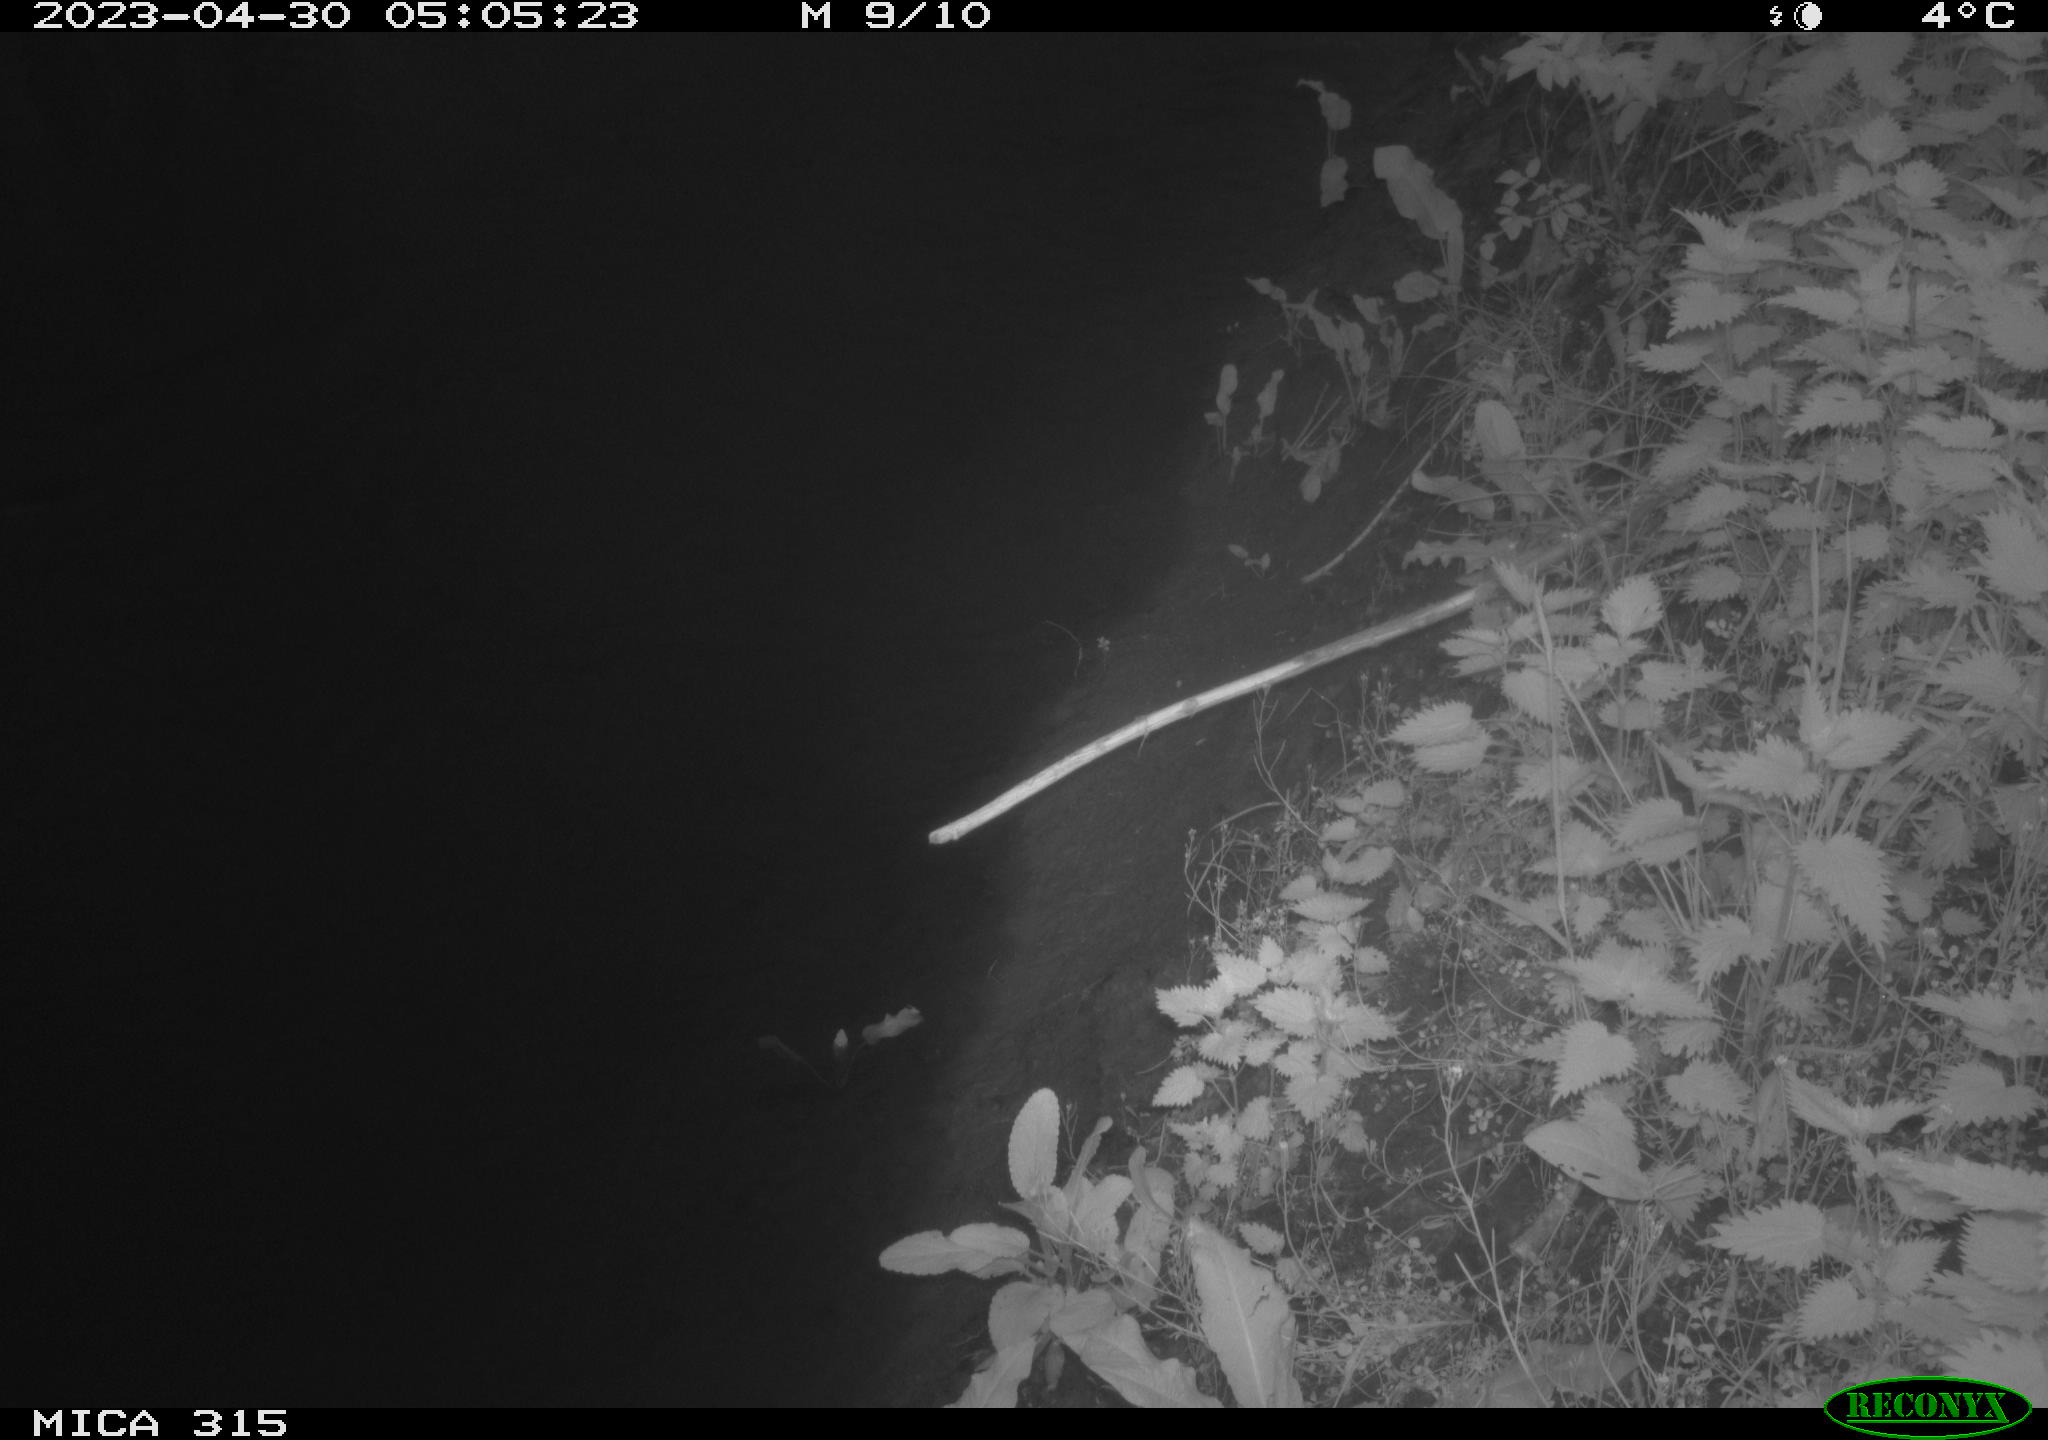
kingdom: Animalia
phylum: Chordata
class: Aves
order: Anseriformes
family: Anatidae
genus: Anas
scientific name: Anas
